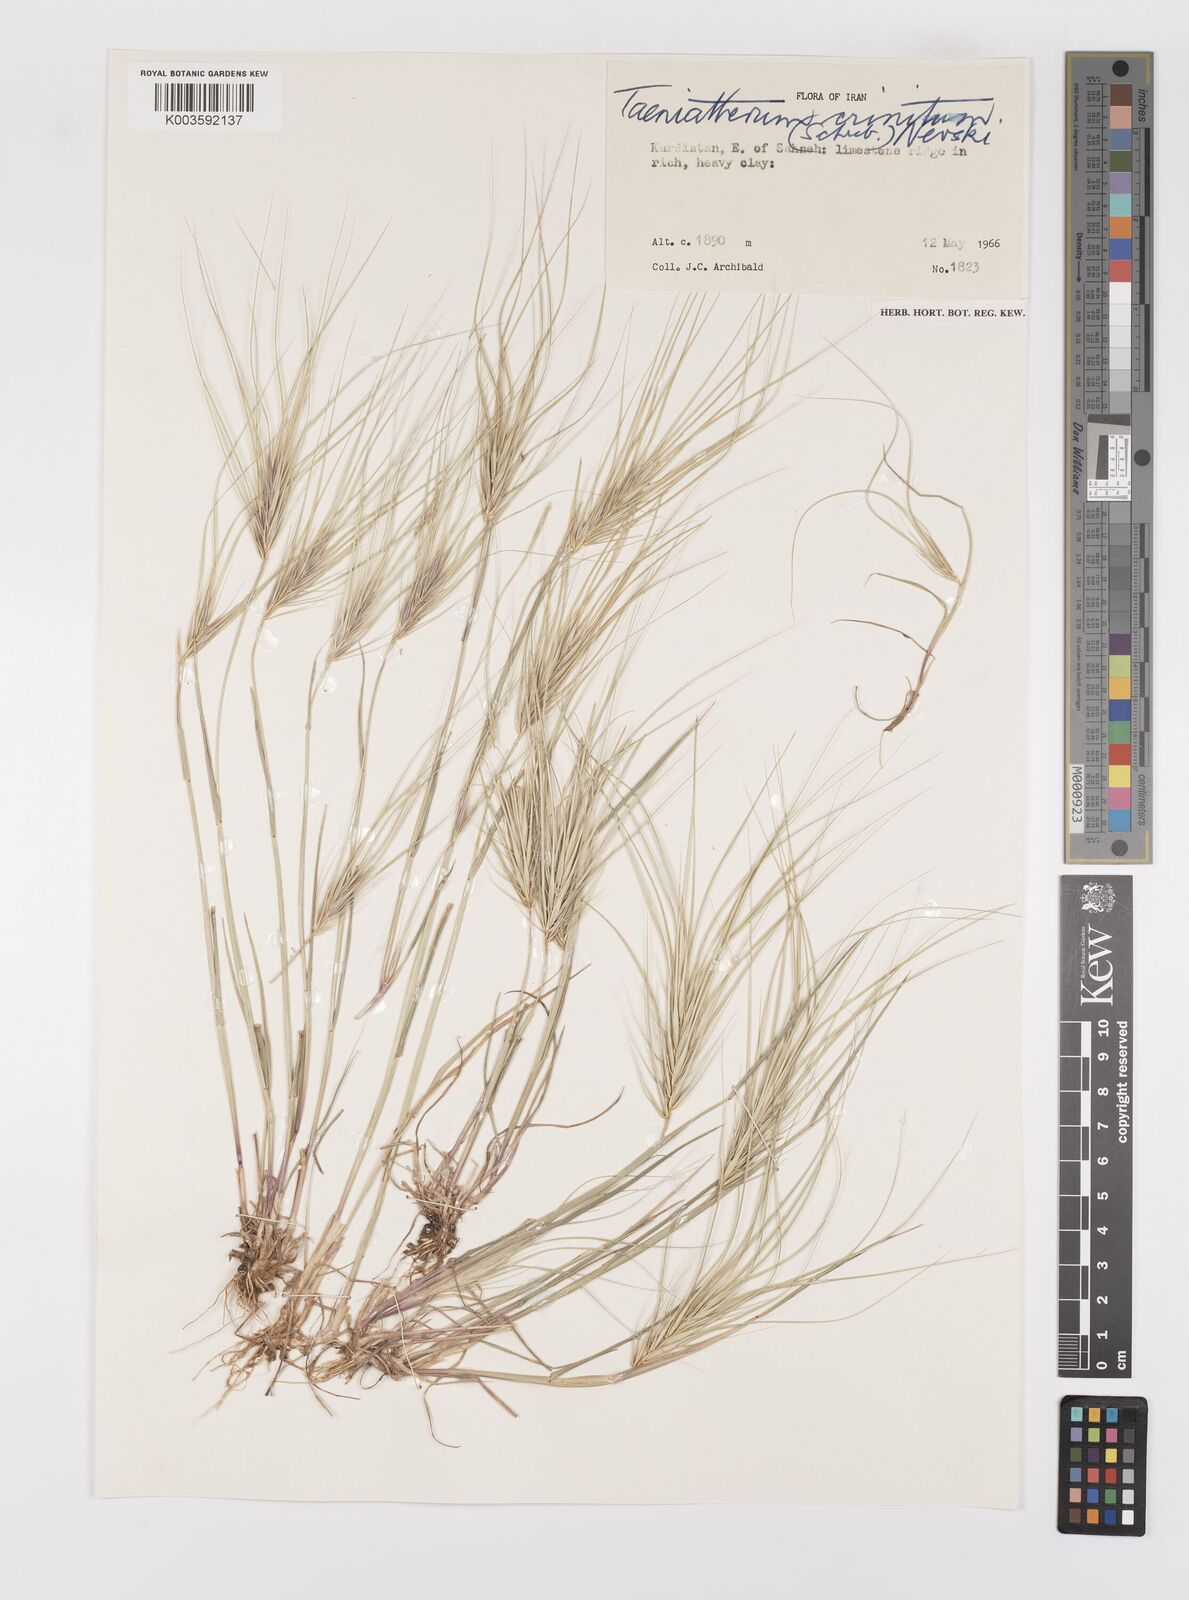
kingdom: Plantae
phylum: Tracheophyta
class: Liliopsida
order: Poales
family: Poaceae
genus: Taeniatherum
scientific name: Taeniatherum caput-medusae
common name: Medusahead
